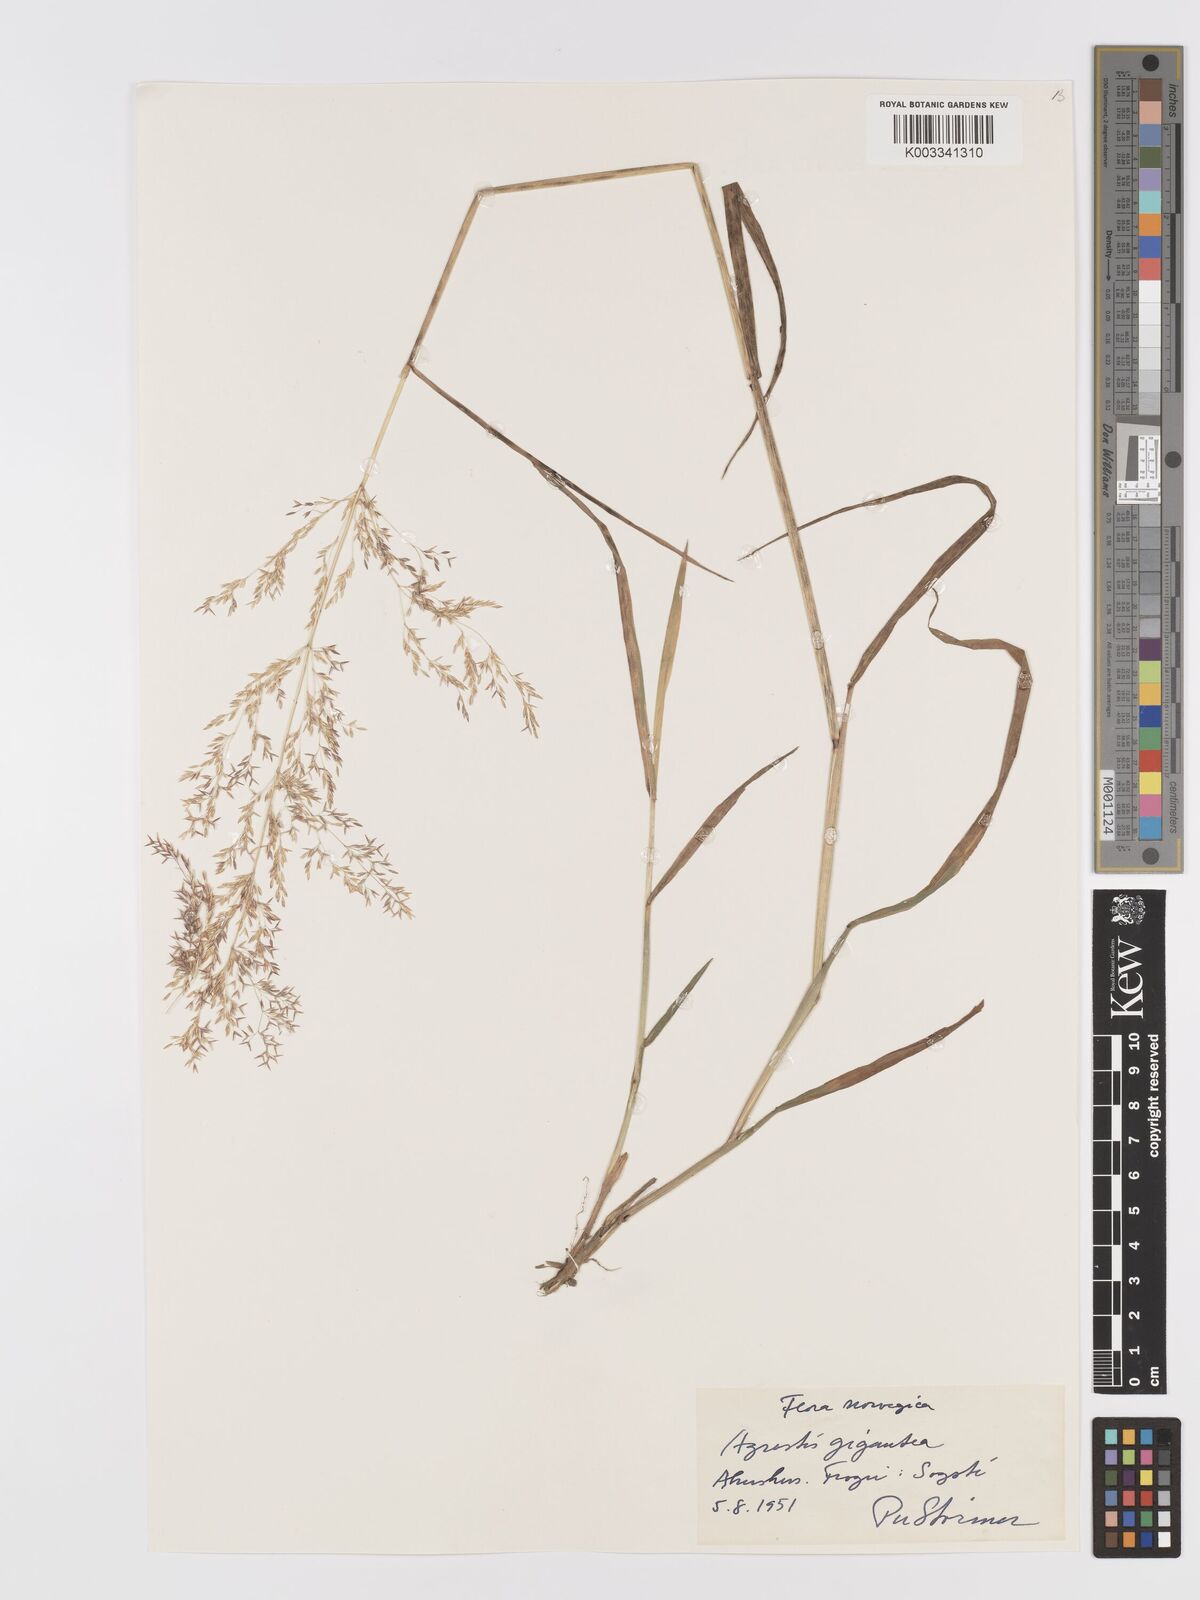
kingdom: Plantae
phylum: Tracheophyta
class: Liliopsida
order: Poales
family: Poaceae
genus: Agrostis
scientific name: Agrostis gigantea
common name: Black bent
